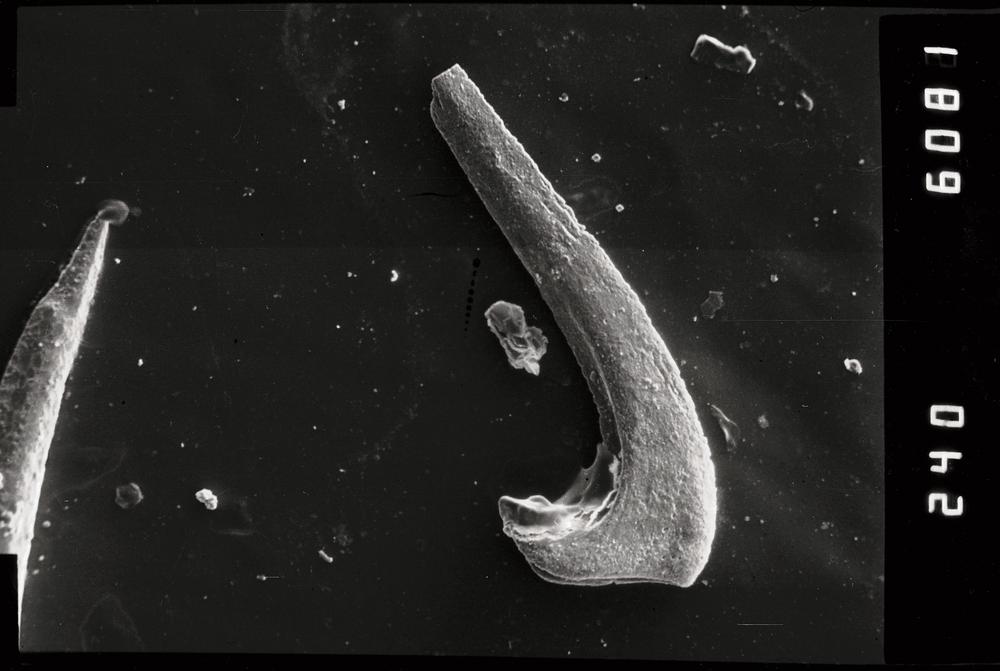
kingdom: Animalia
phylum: Chordata
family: Protopanderodontidae
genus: Protopanderodus
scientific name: Protopanderodus Acontiodus rectus
